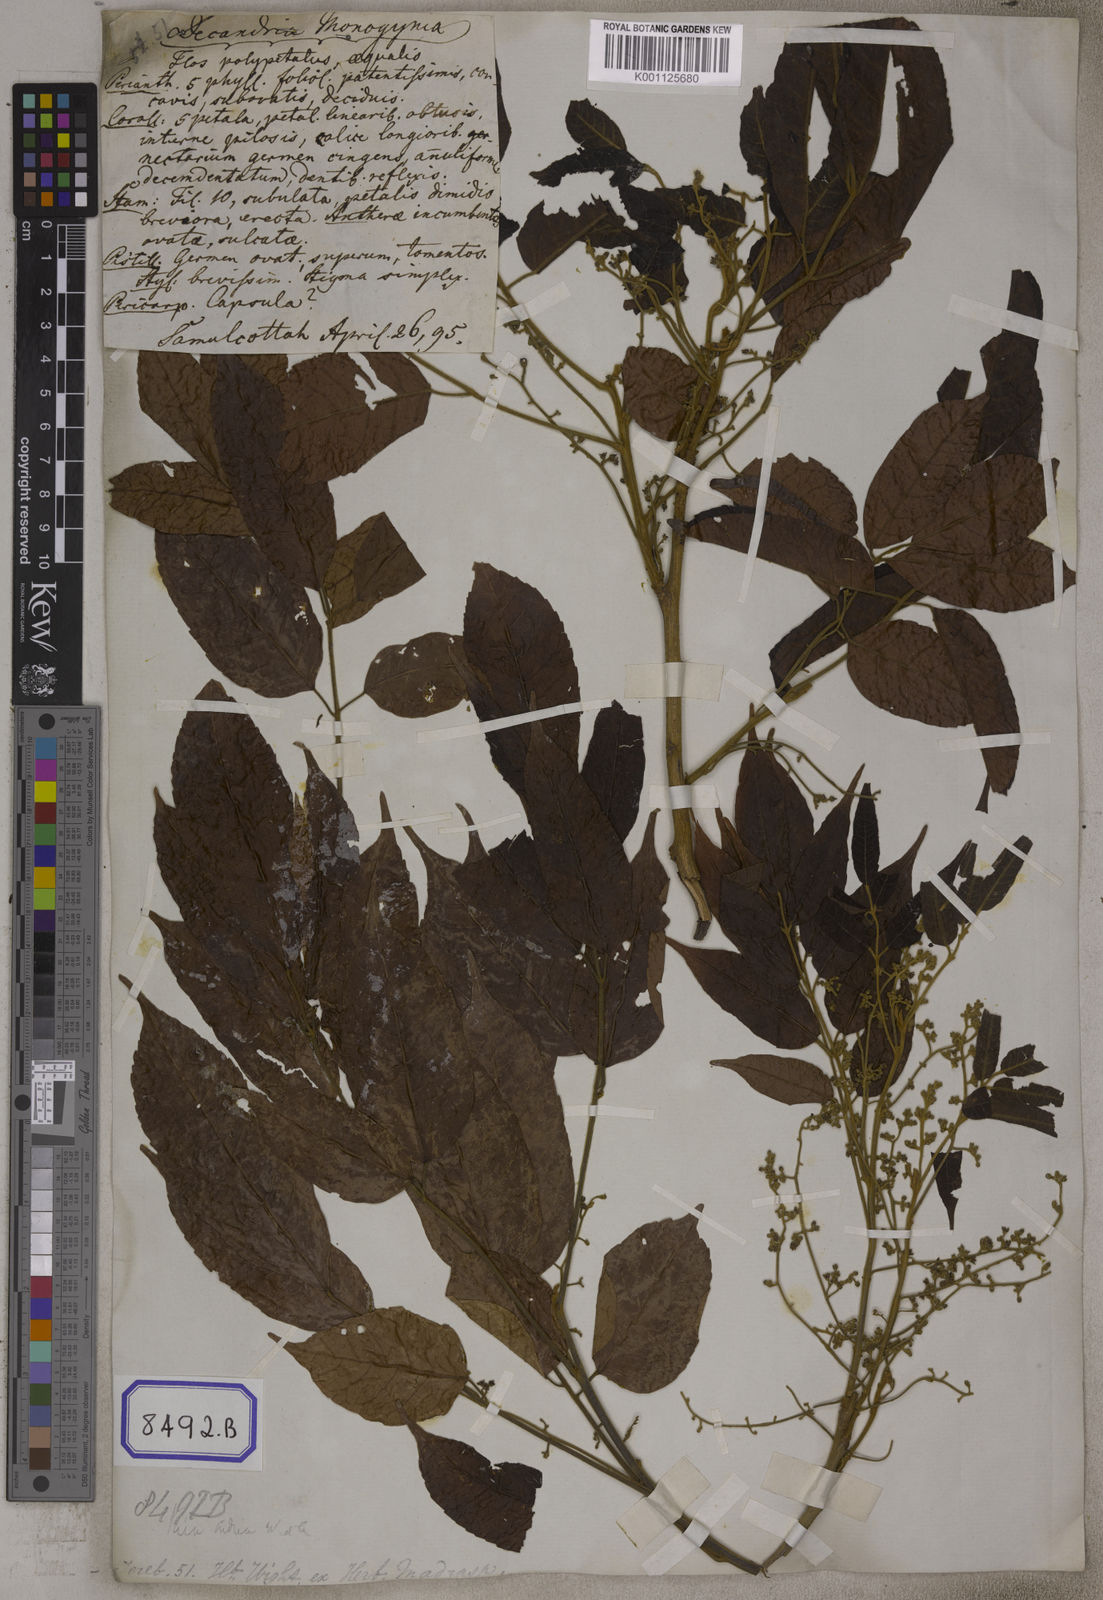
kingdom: Plantae
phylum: Tracheophyta
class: Magnoliopsida
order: Sapindales
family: Burseraceae
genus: Protium
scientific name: Protium serratum
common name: Murtenga
